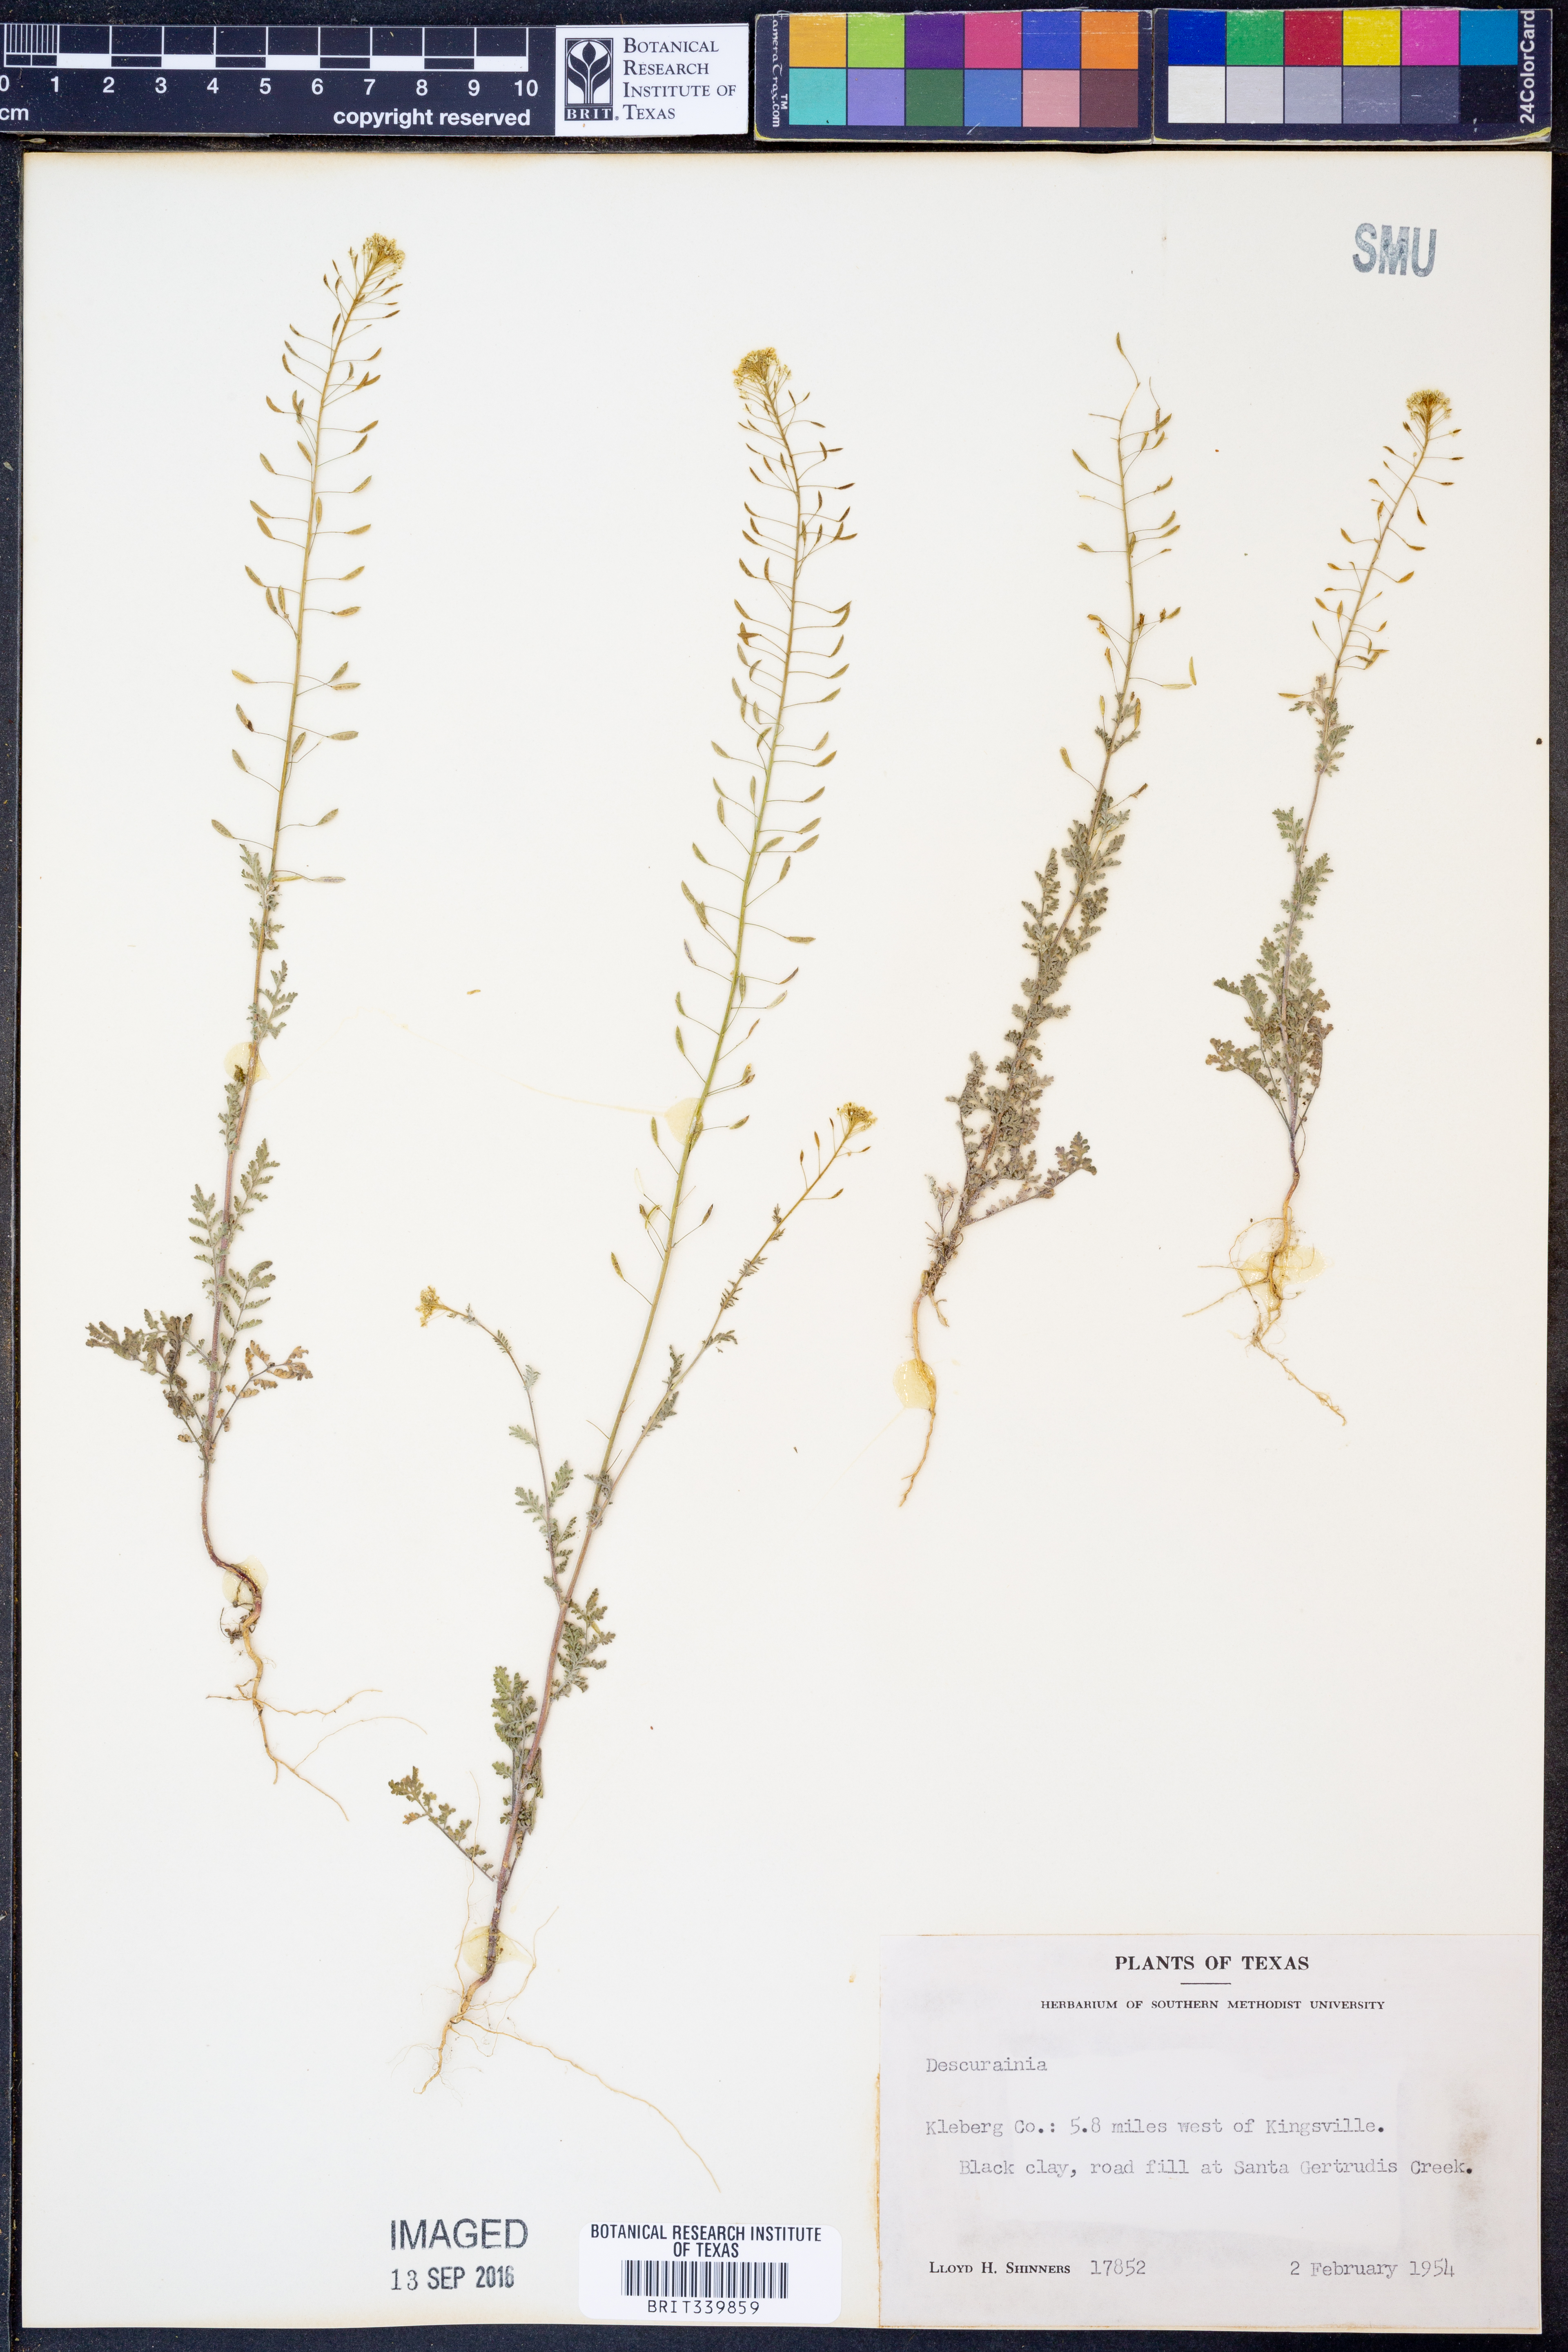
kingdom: Plantae
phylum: Tracheophyta
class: Magnoliopsida
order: Brassicales
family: Brassicaceae
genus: Descurainia
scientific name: Descurainia
